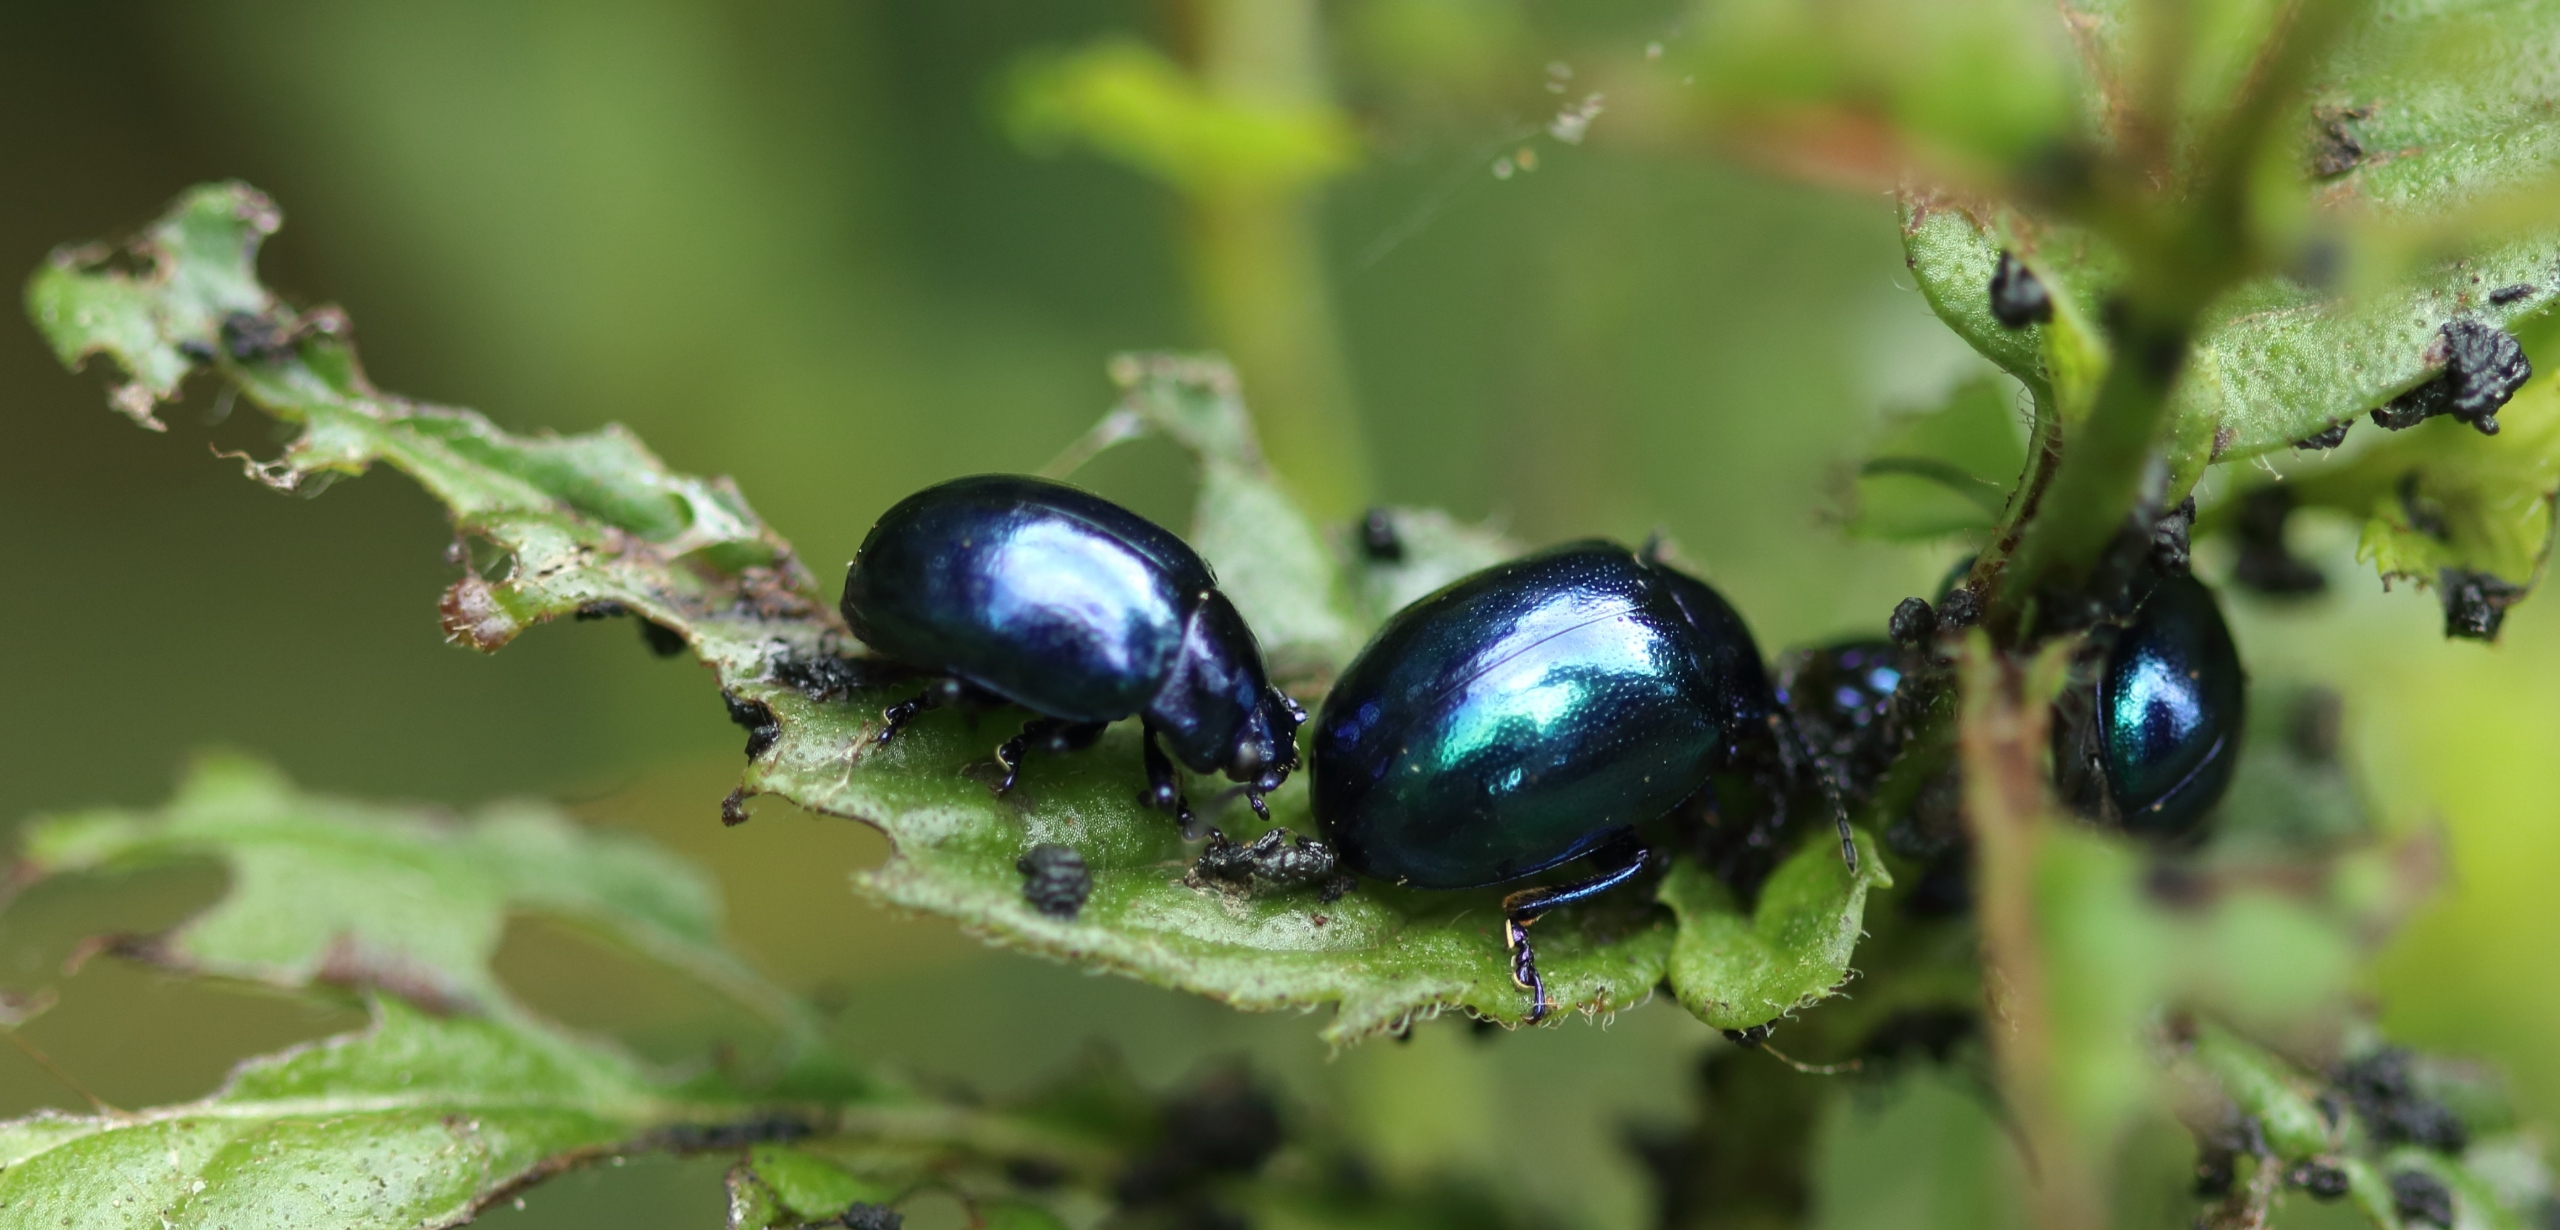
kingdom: Animalia
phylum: Arthropoda
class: Insecta
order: Coleoptera
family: Chrysomelidae
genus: Chrysolina
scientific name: Chrysolina coerulans
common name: Blå mynteguldbille
